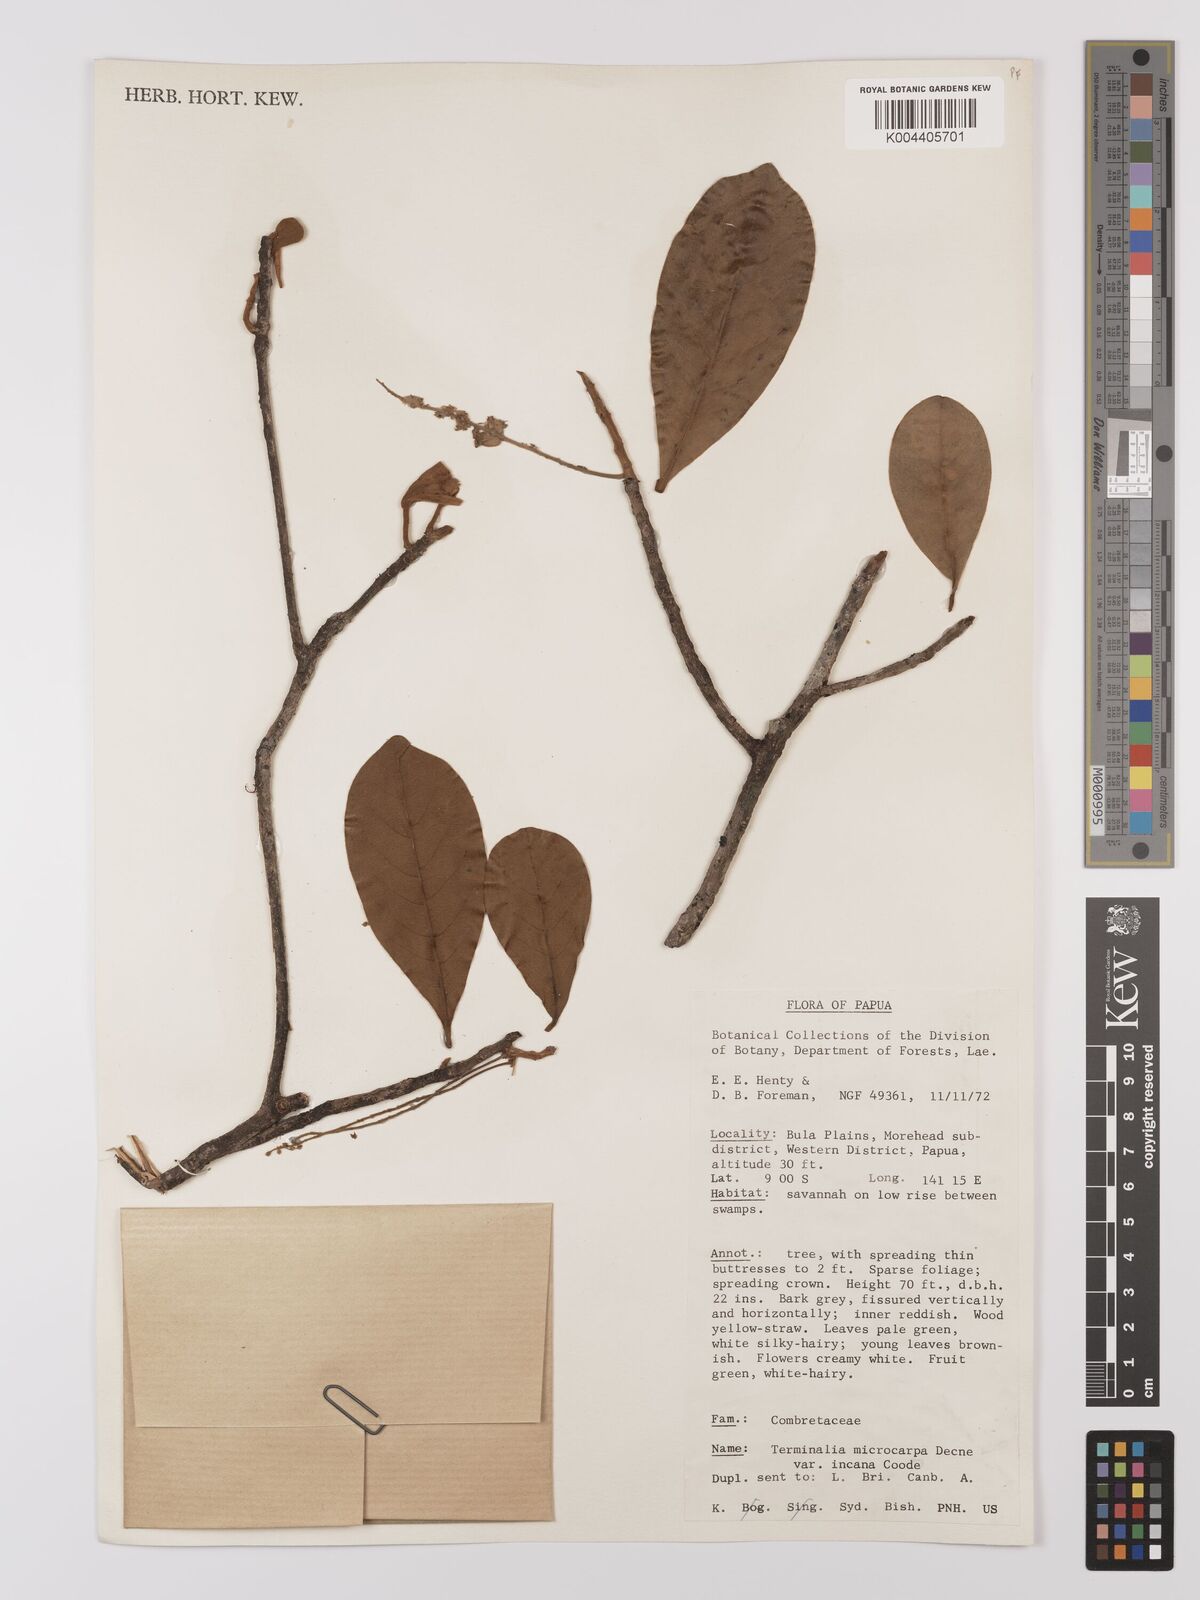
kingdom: Plantae
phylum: Tracheophyta
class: Magnoliopsida
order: Myrtales
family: Combretaceae
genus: Terminalia
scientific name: Terminalia microcarpa
